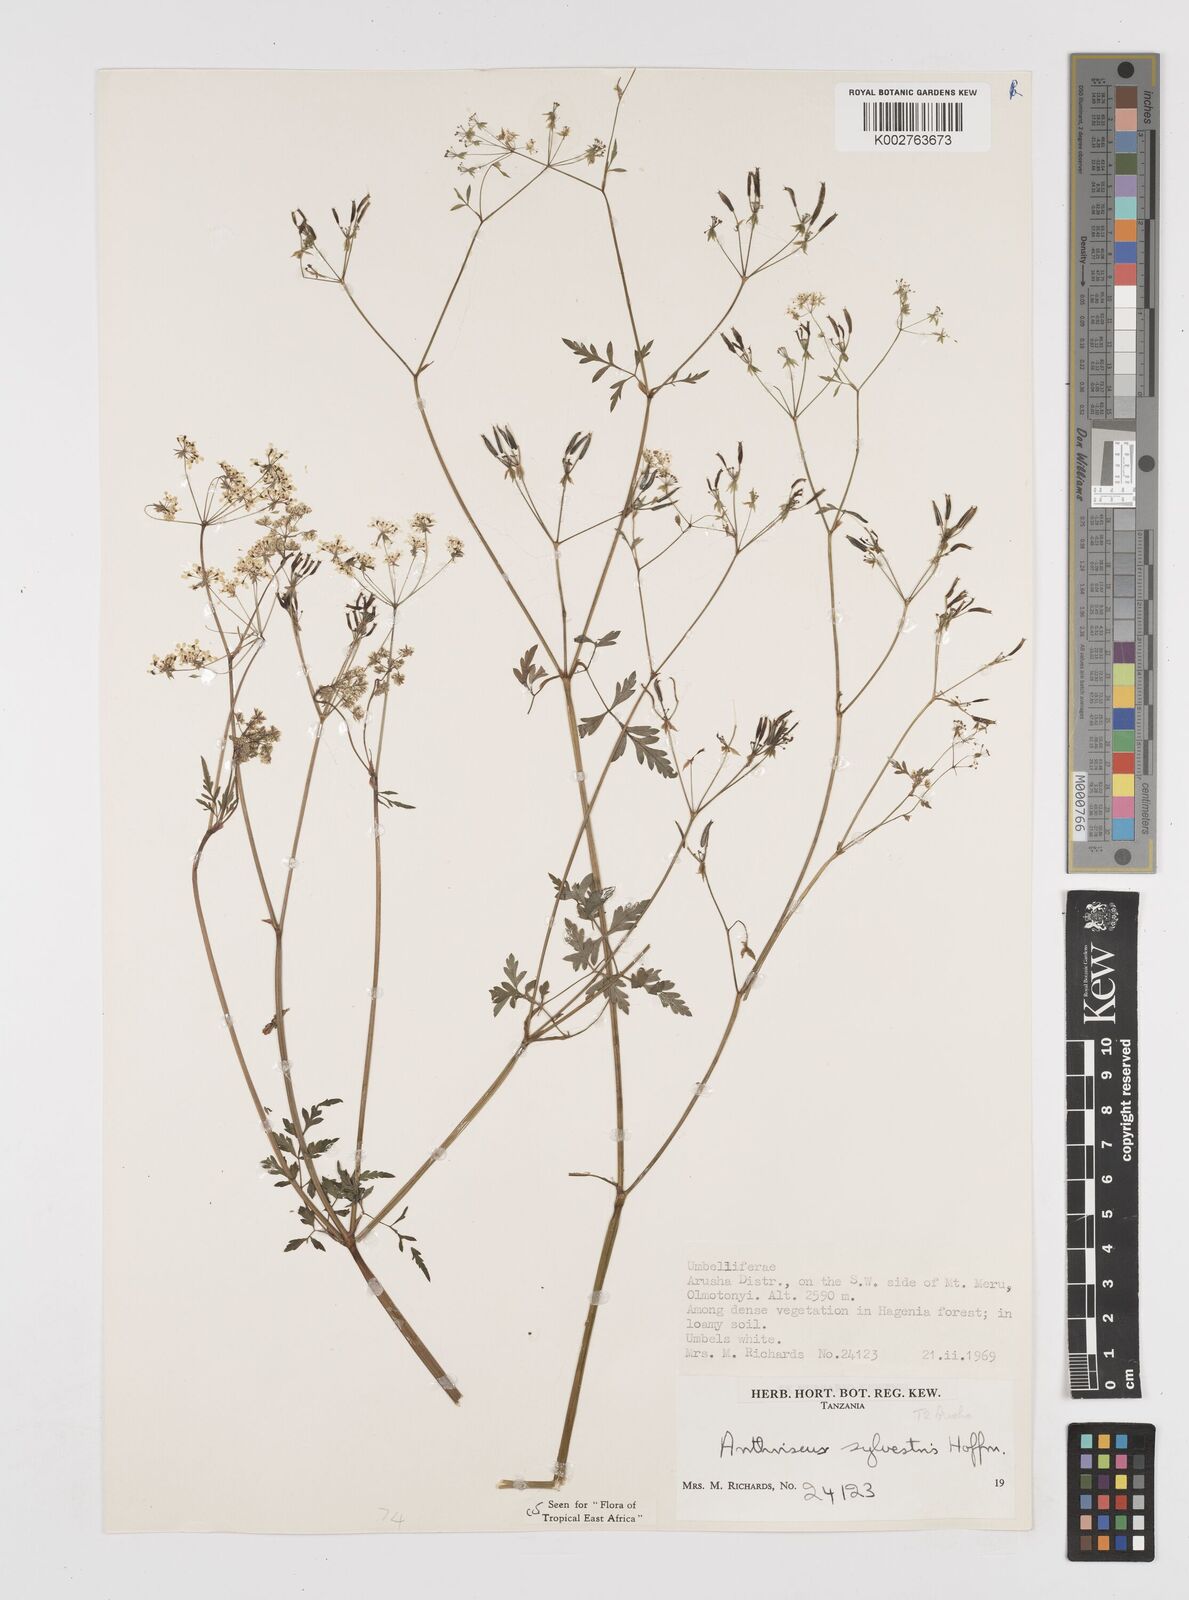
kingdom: Plantae
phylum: Tracheophyta
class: Magnoliopsida
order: Apiales
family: Apiaceae
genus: Anthriscus
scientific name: Anthriscus sylvestris
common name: Cow parsley
